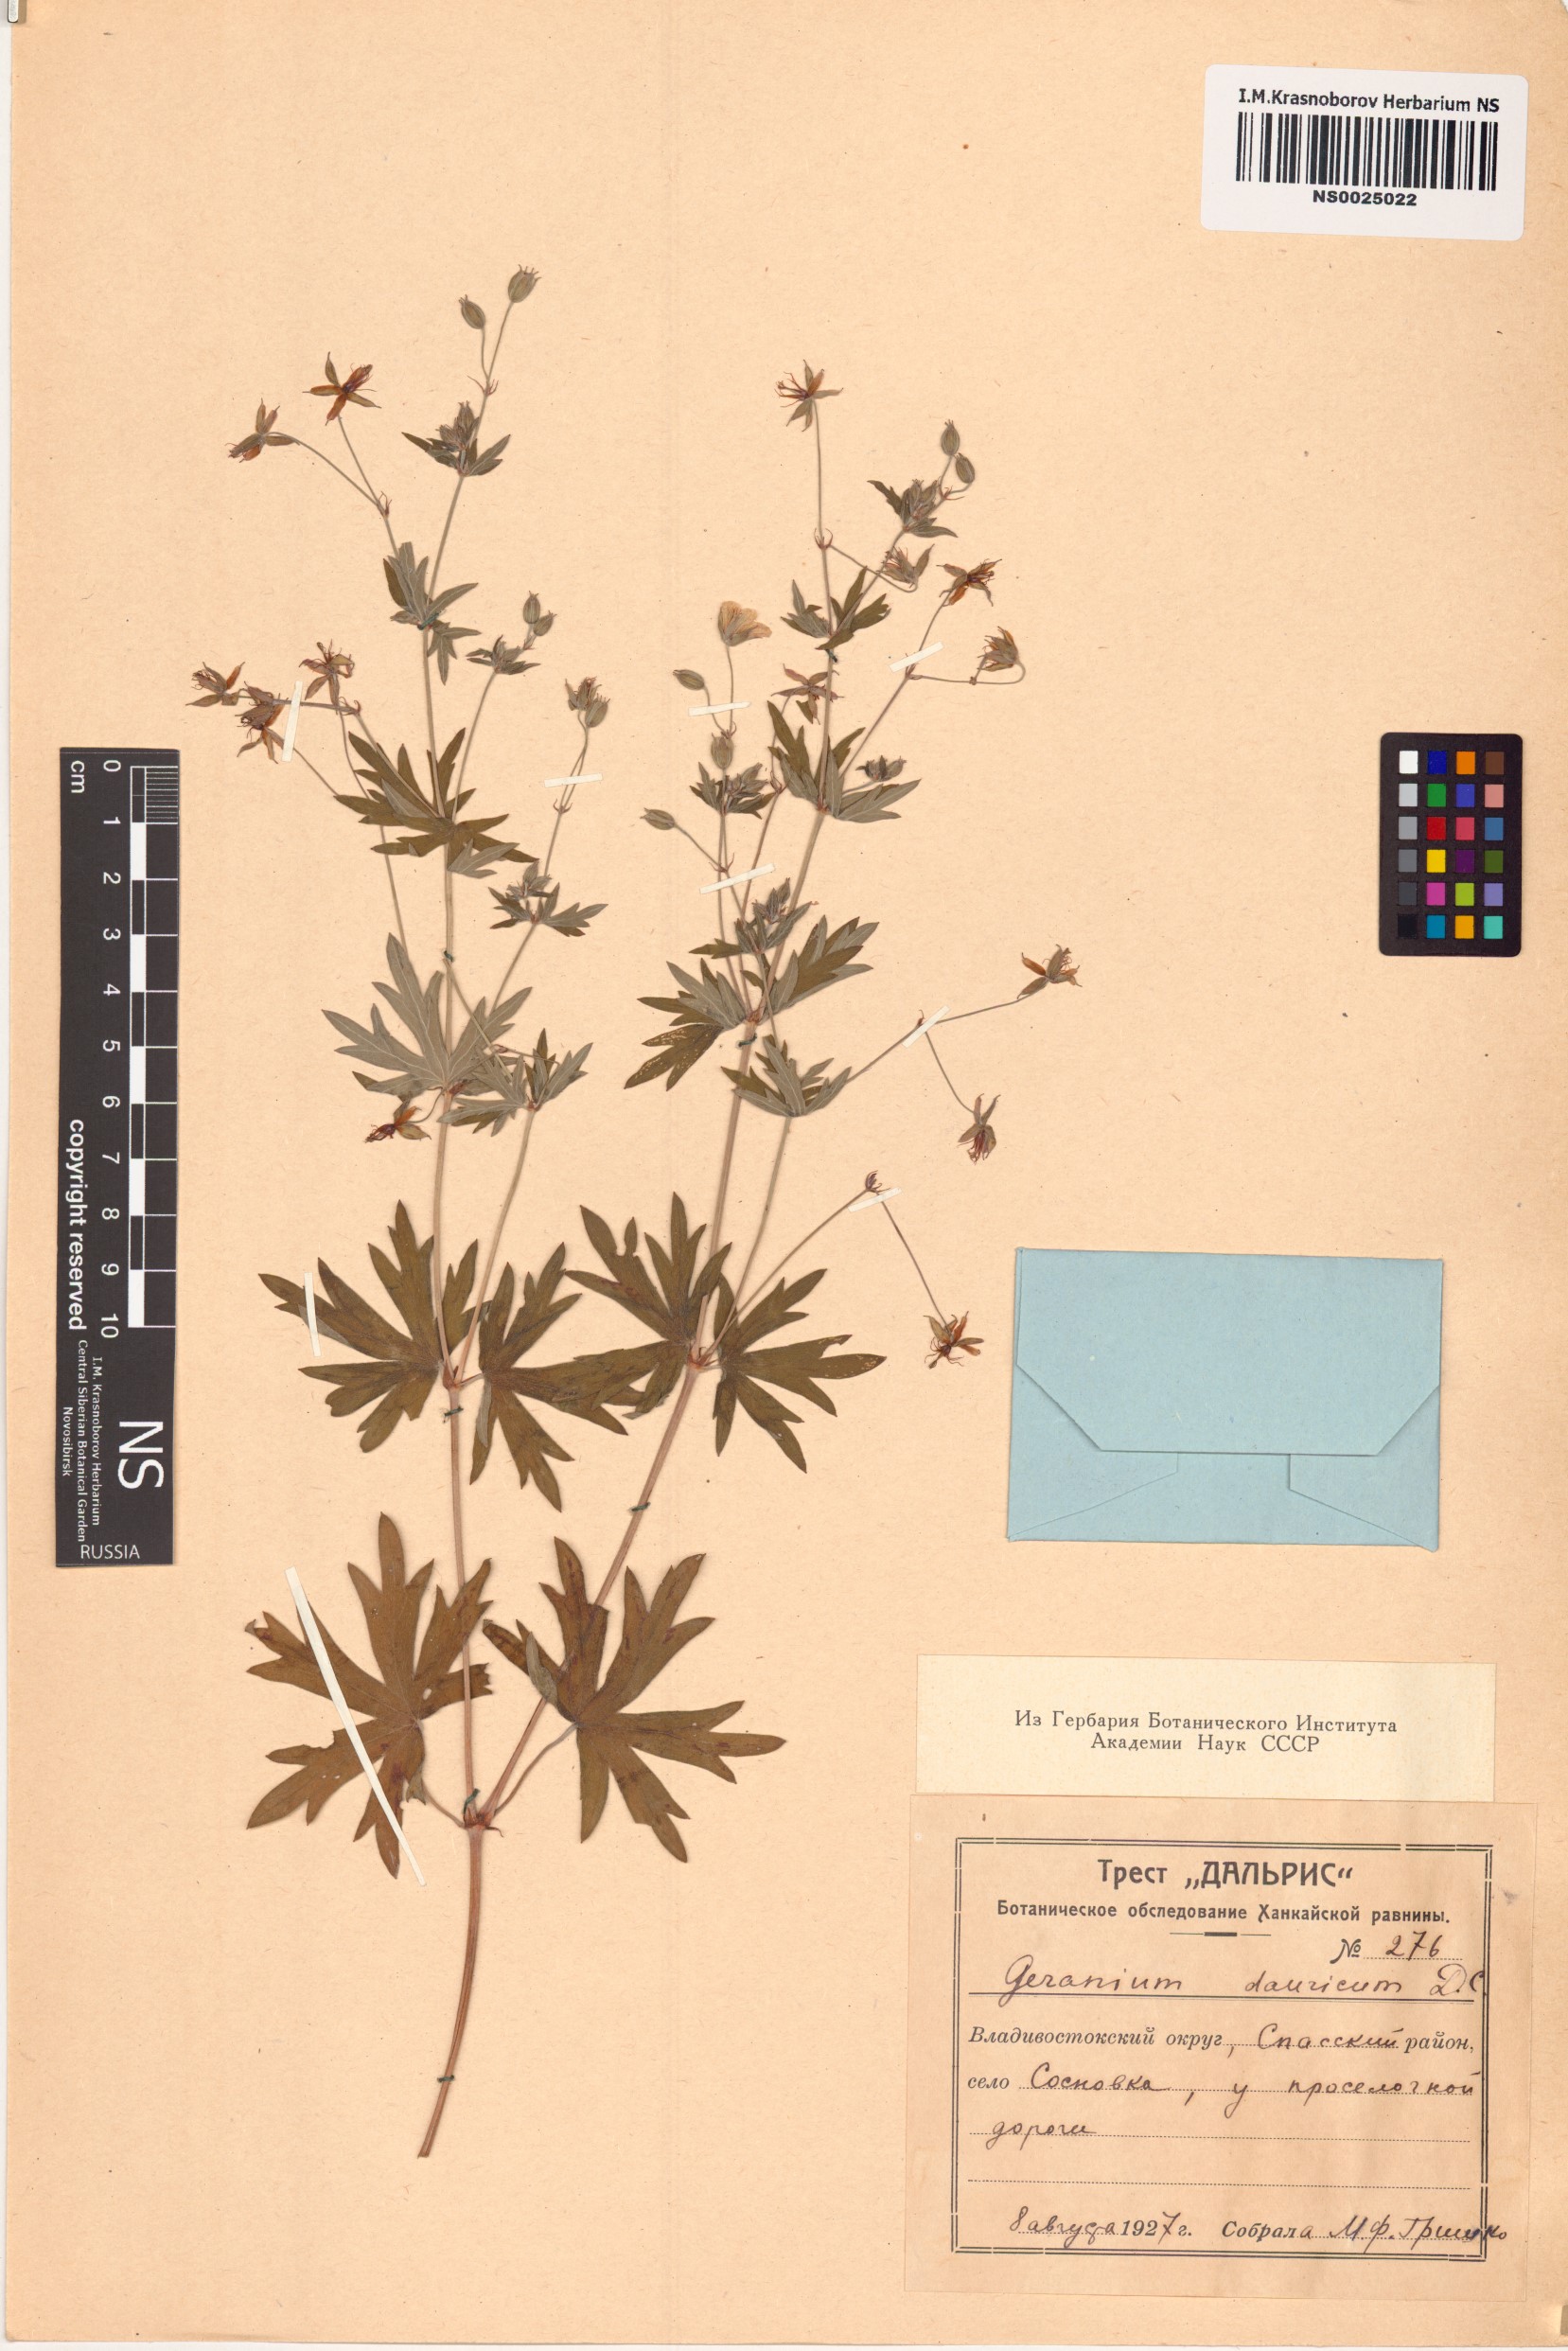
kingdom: Plantae
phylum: Tracheophyta
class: Magnoliopsida
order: Geraniales
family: Geraniaceae
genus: Geranium
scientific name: Geranium dahuricum
